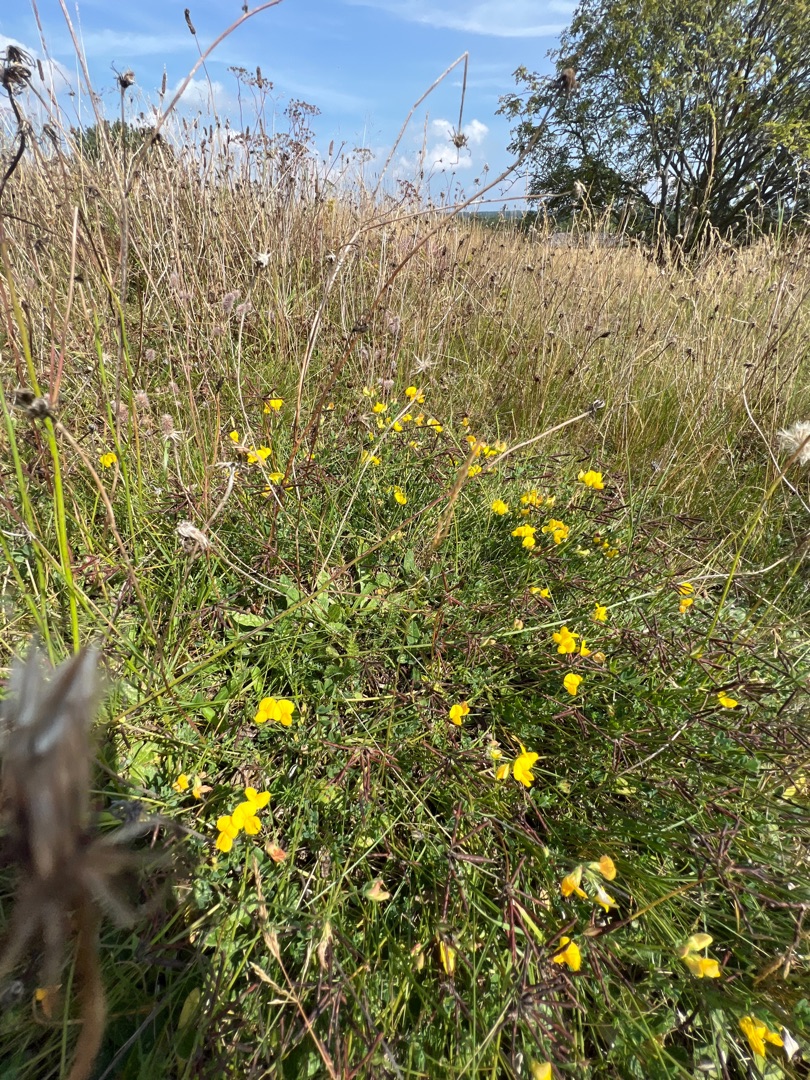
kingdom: Plantae
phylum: Tracheophyta
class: Magnoliopsida
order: Fabales
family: Fabaceae
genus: Lotus
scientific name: Lotus corniculatus
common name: Almindelig kællingetand
